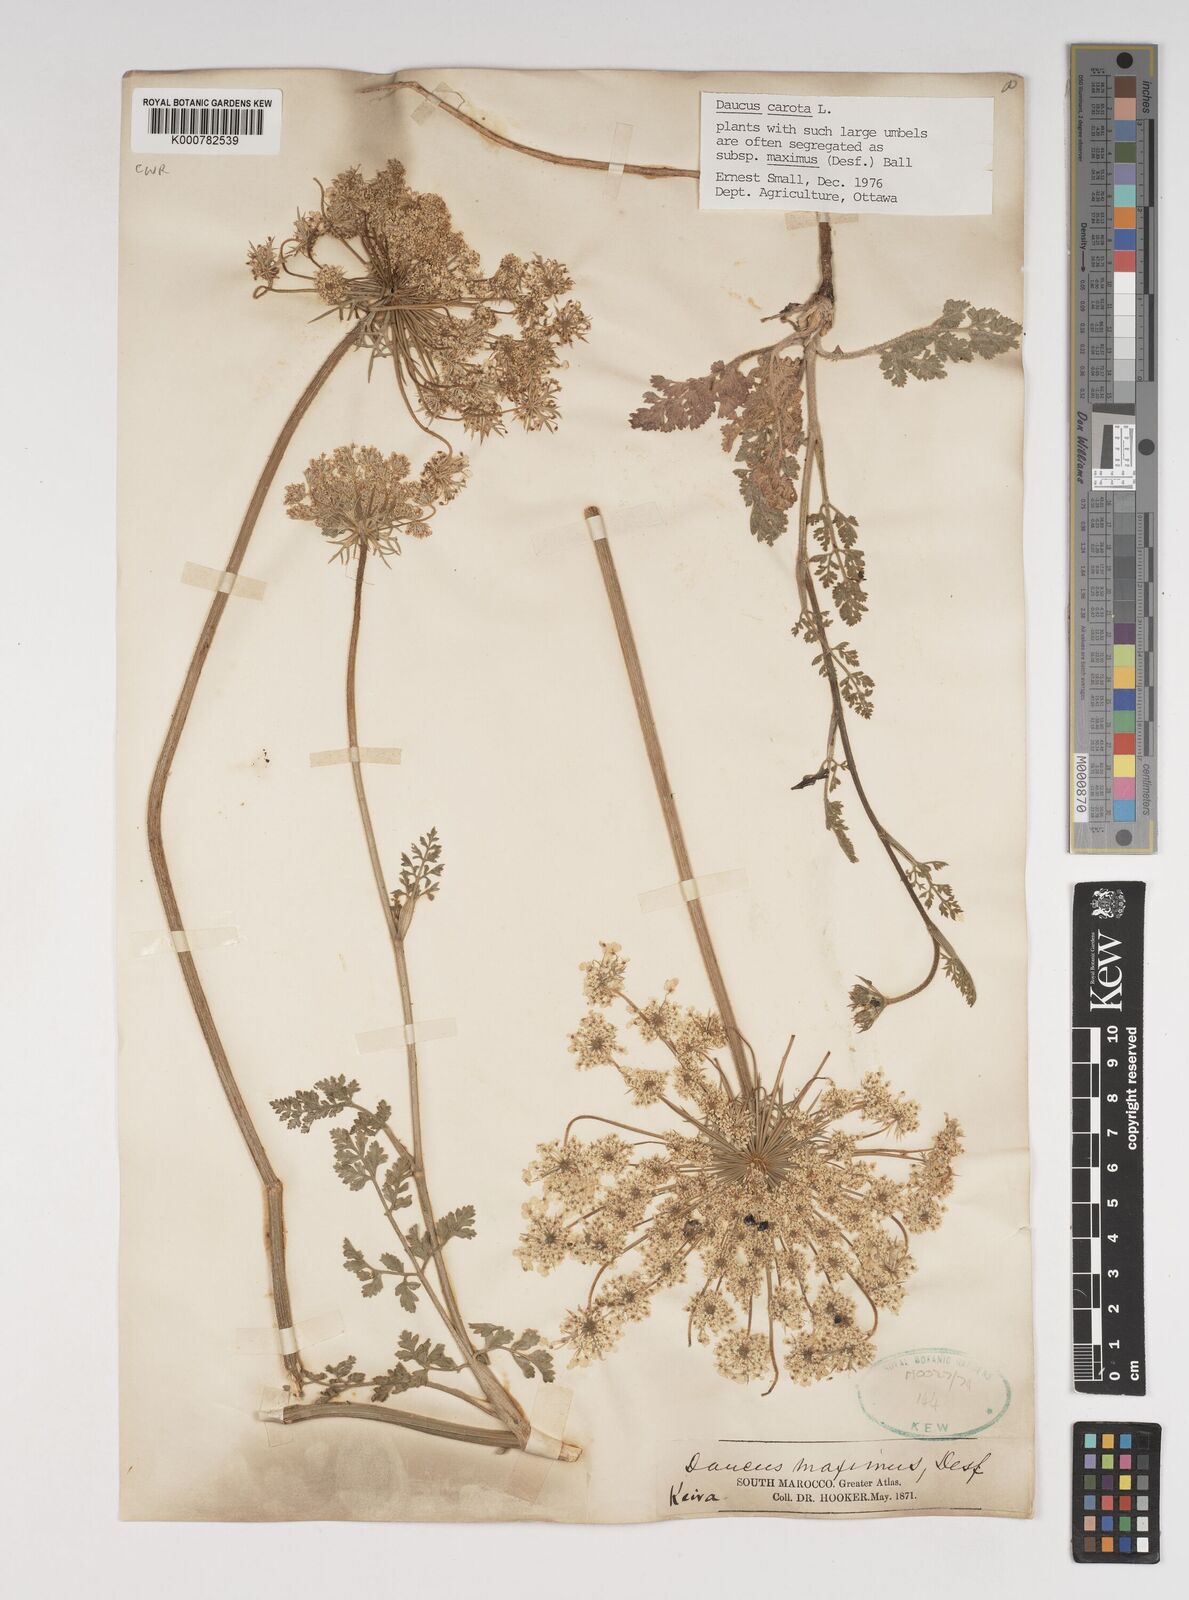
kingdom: Plantae
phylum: Tracheophyta
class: Magnoliopsida
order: Apiales
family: Apiaceae
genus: Daucus
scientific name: Daucus carota
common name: Wild carrot
